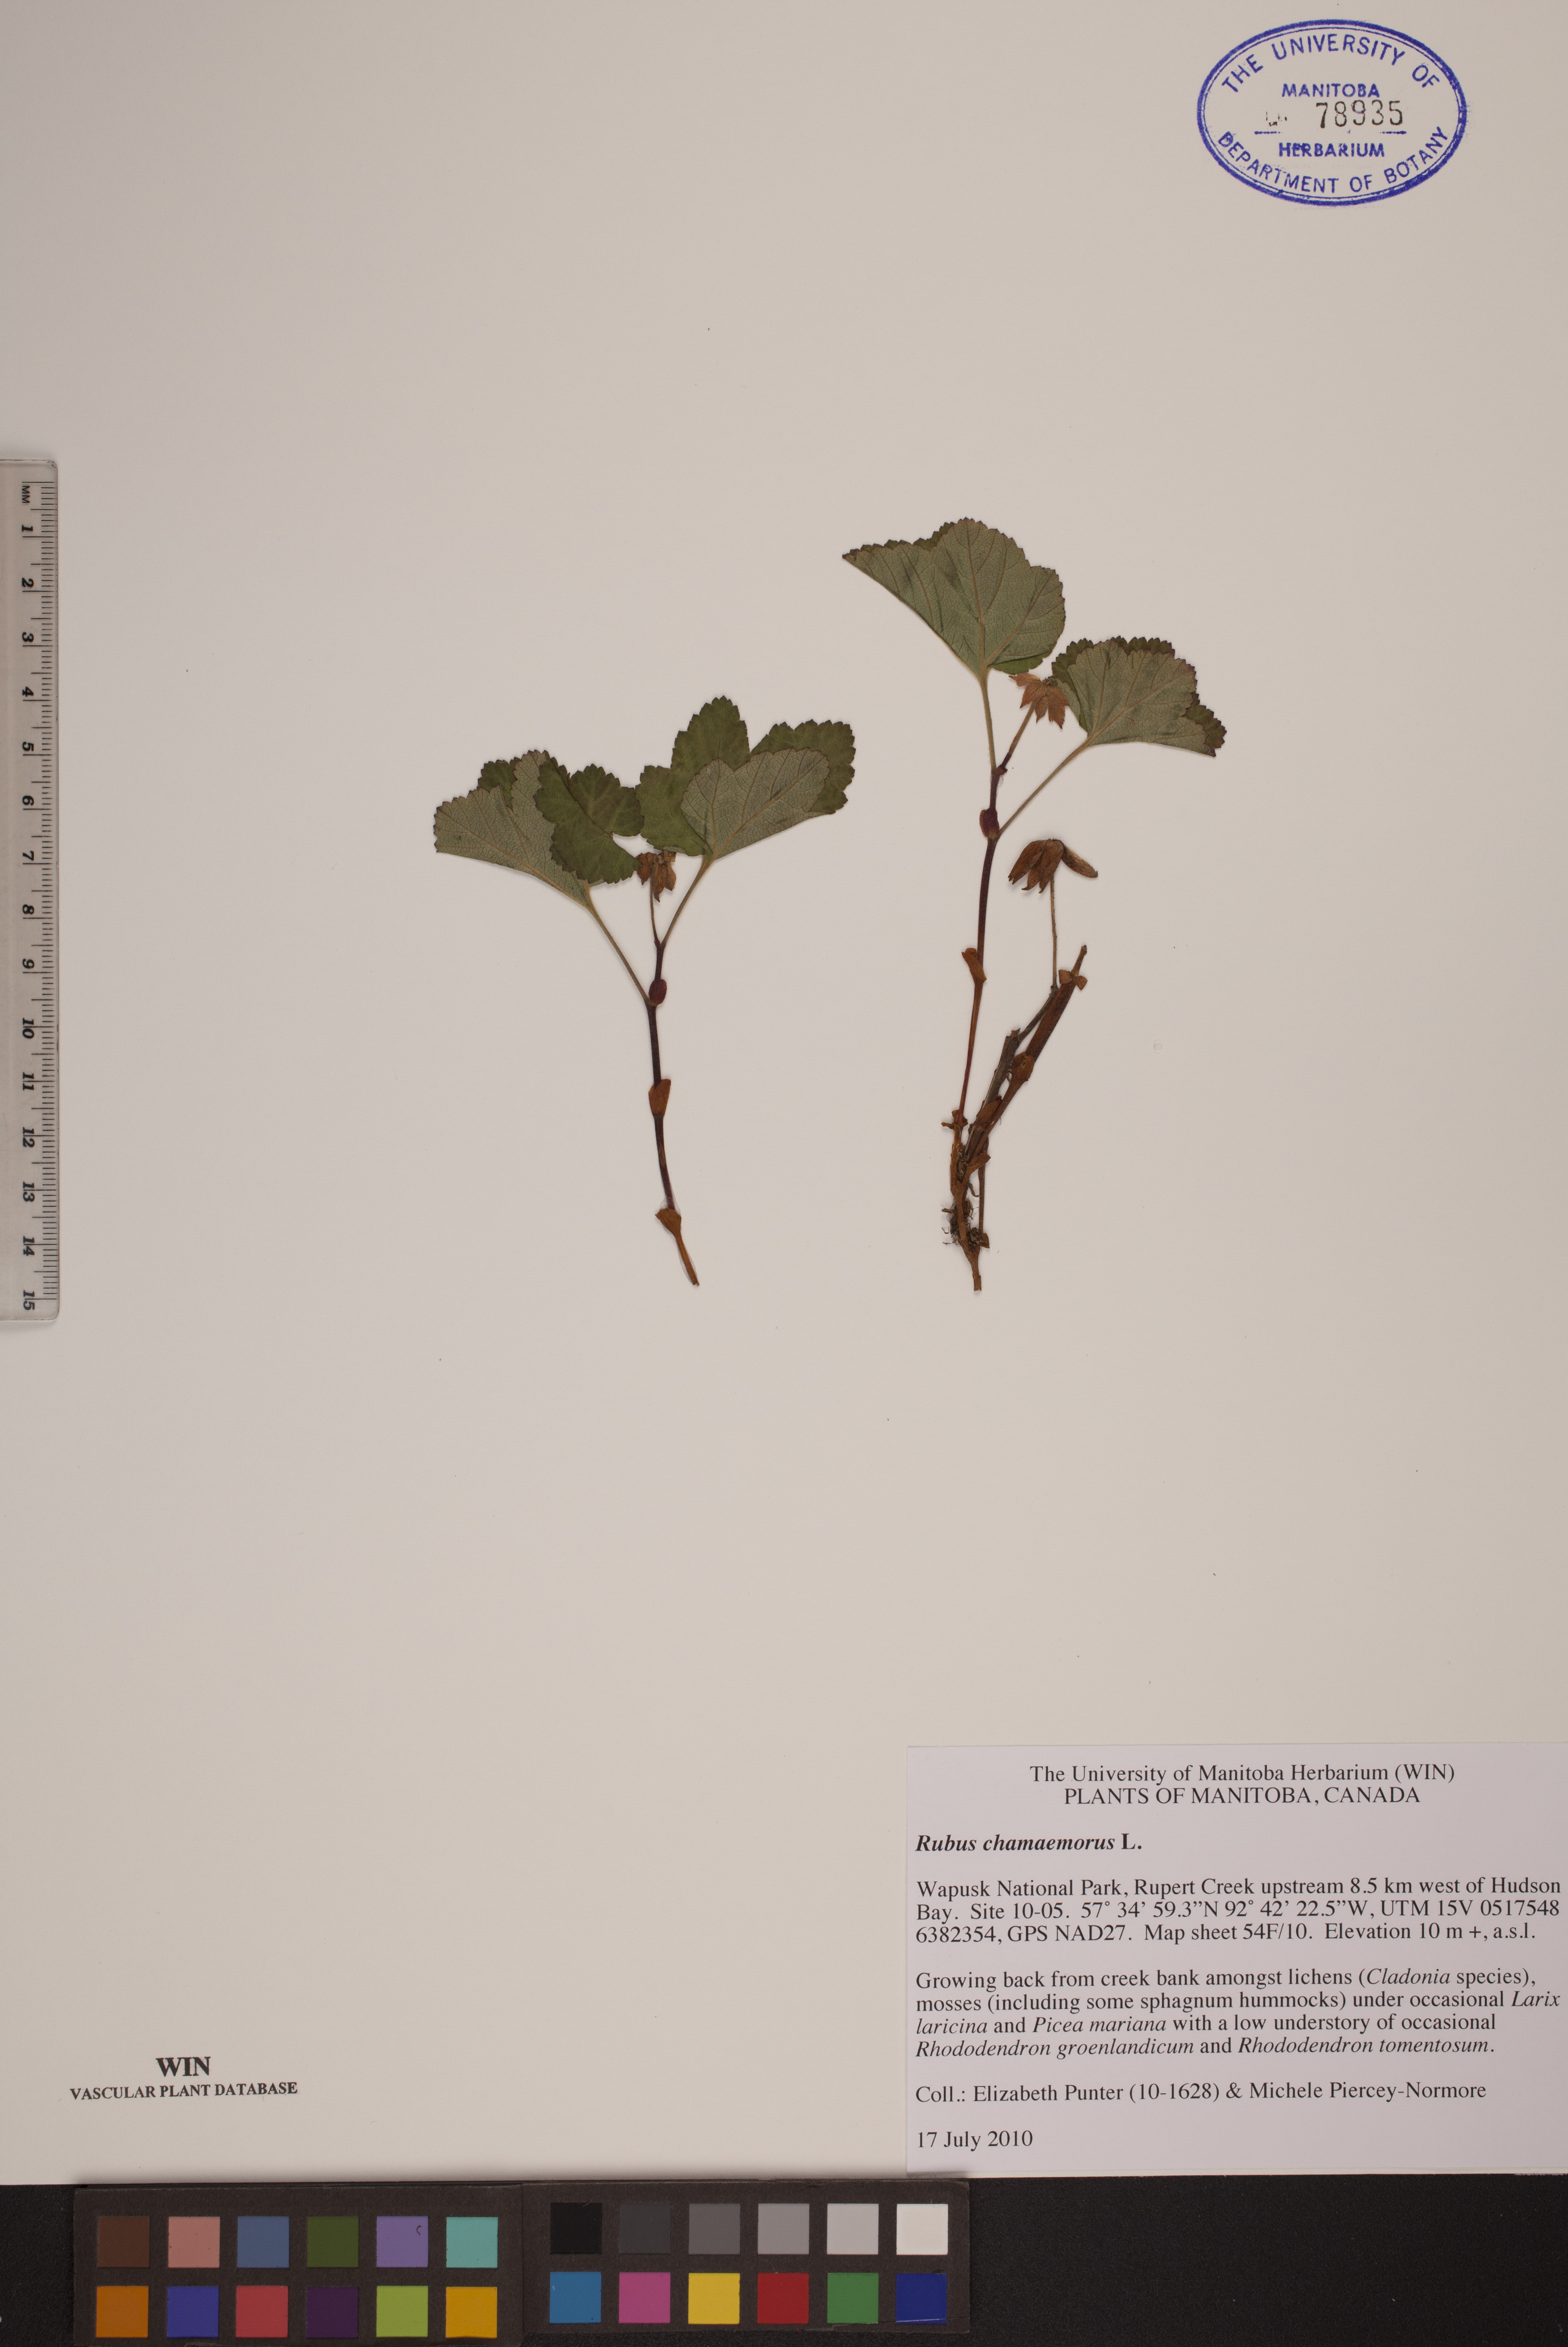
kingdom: Plantae
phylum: Tracheophyta
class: Magnoliopsida
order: Rosales
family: Rosaceae
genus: Rubus
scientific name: Rubus chamaemorus
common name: Cloudberry
